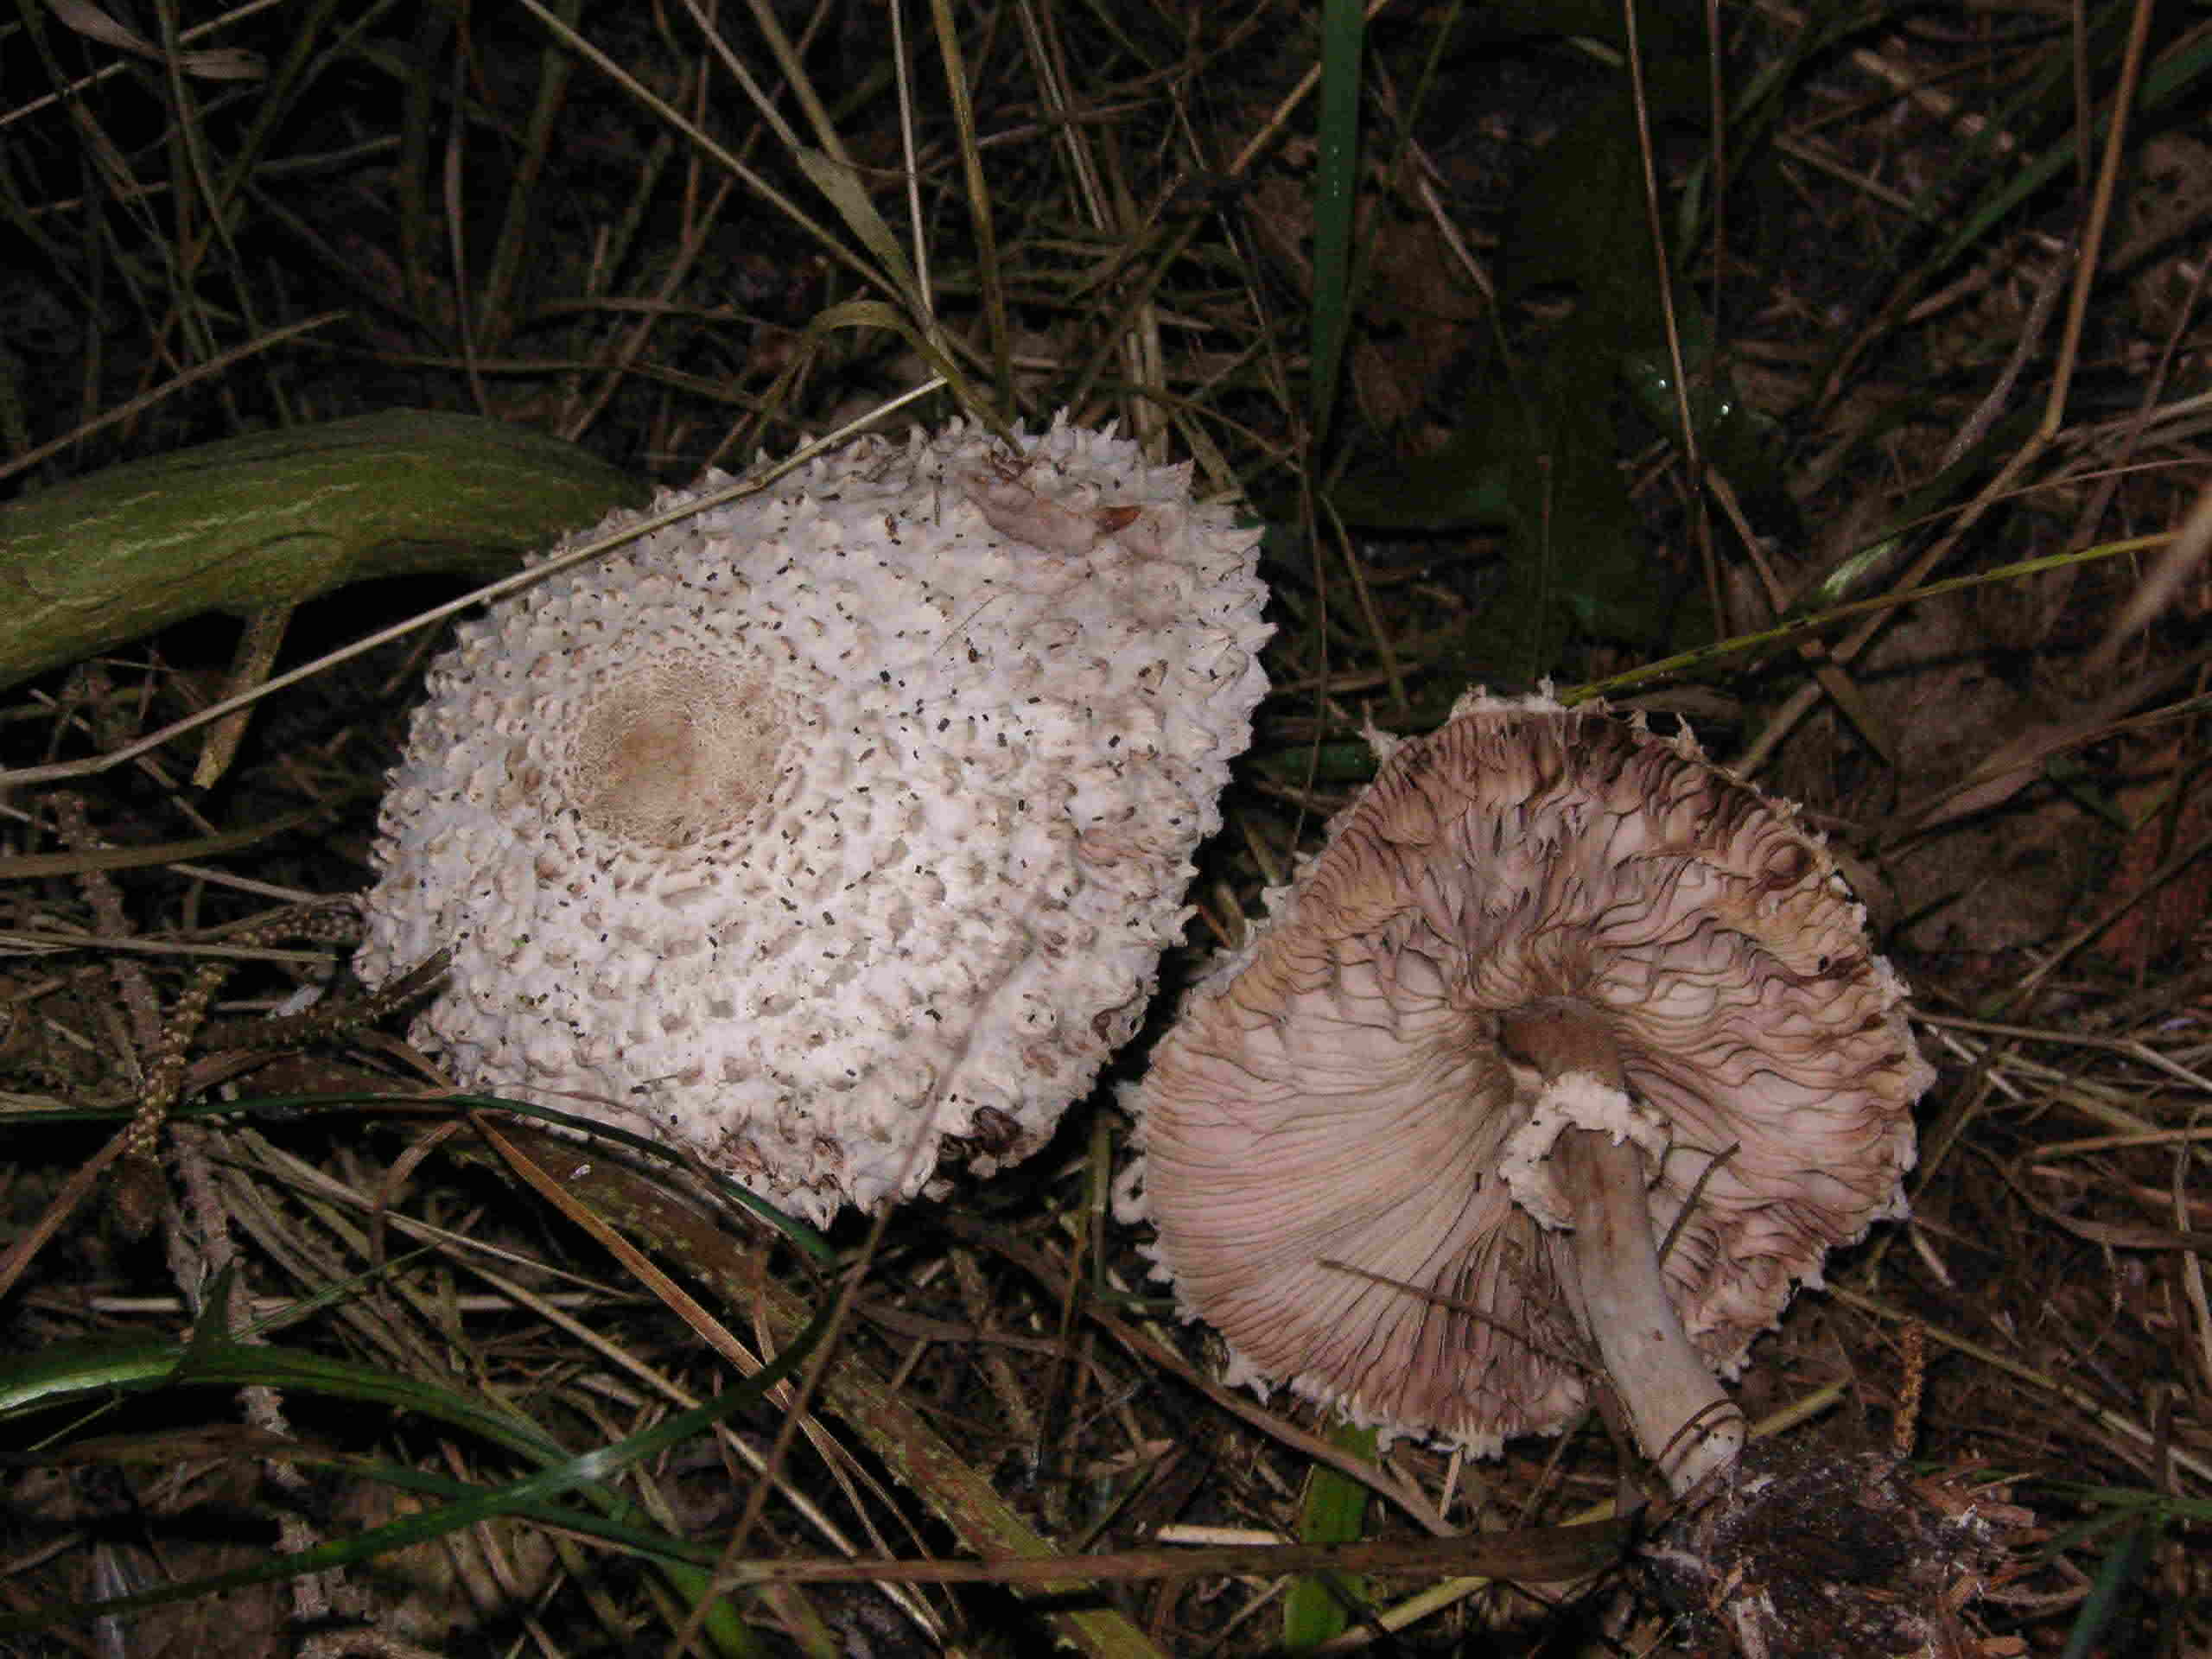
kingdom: Fungi
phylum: Basidiomycota
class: Agaricomycetes
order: Agaricales
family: Agaricaceae
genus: Leucoagaricus
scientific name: Leucoagaricus nympharum
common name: gran-silkehat
